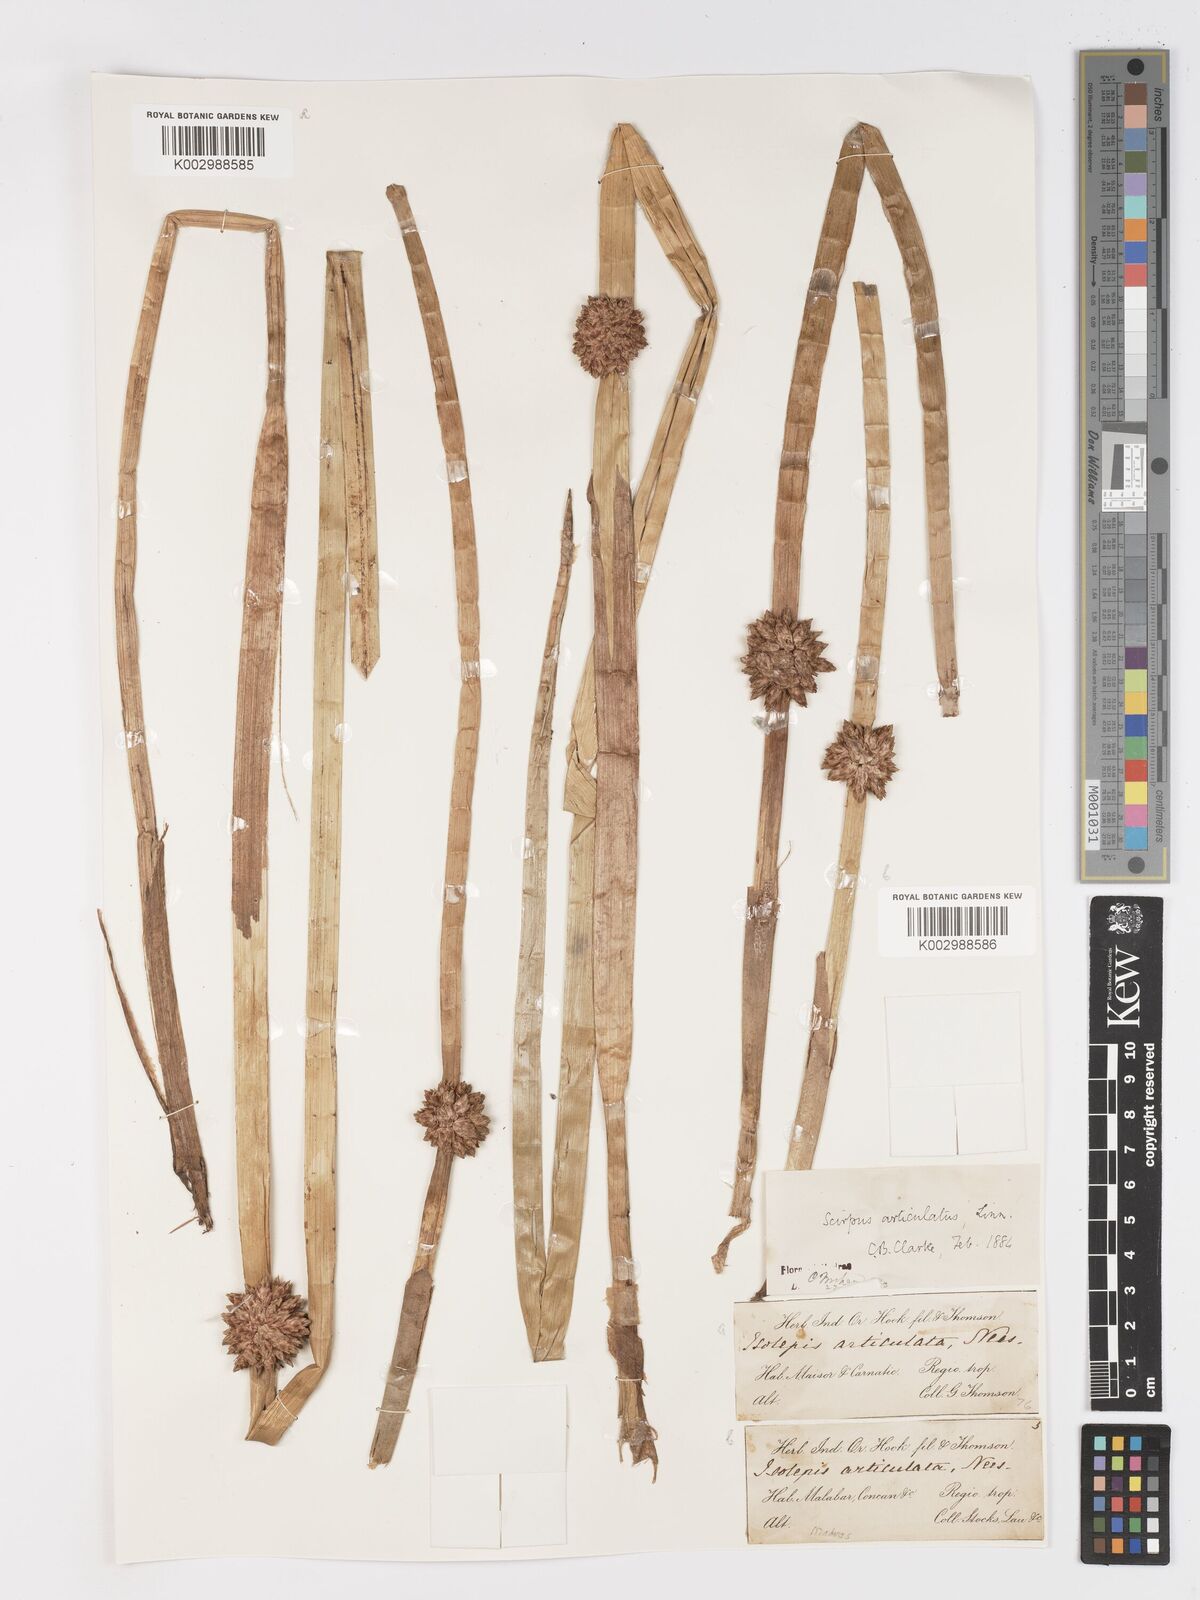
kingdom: Plantae
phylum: Tracheophyta
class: Liliopsida
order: Poales
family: Cyperaceae
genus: Schoenoplectiella
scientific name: Schoenoplectiella articulata
